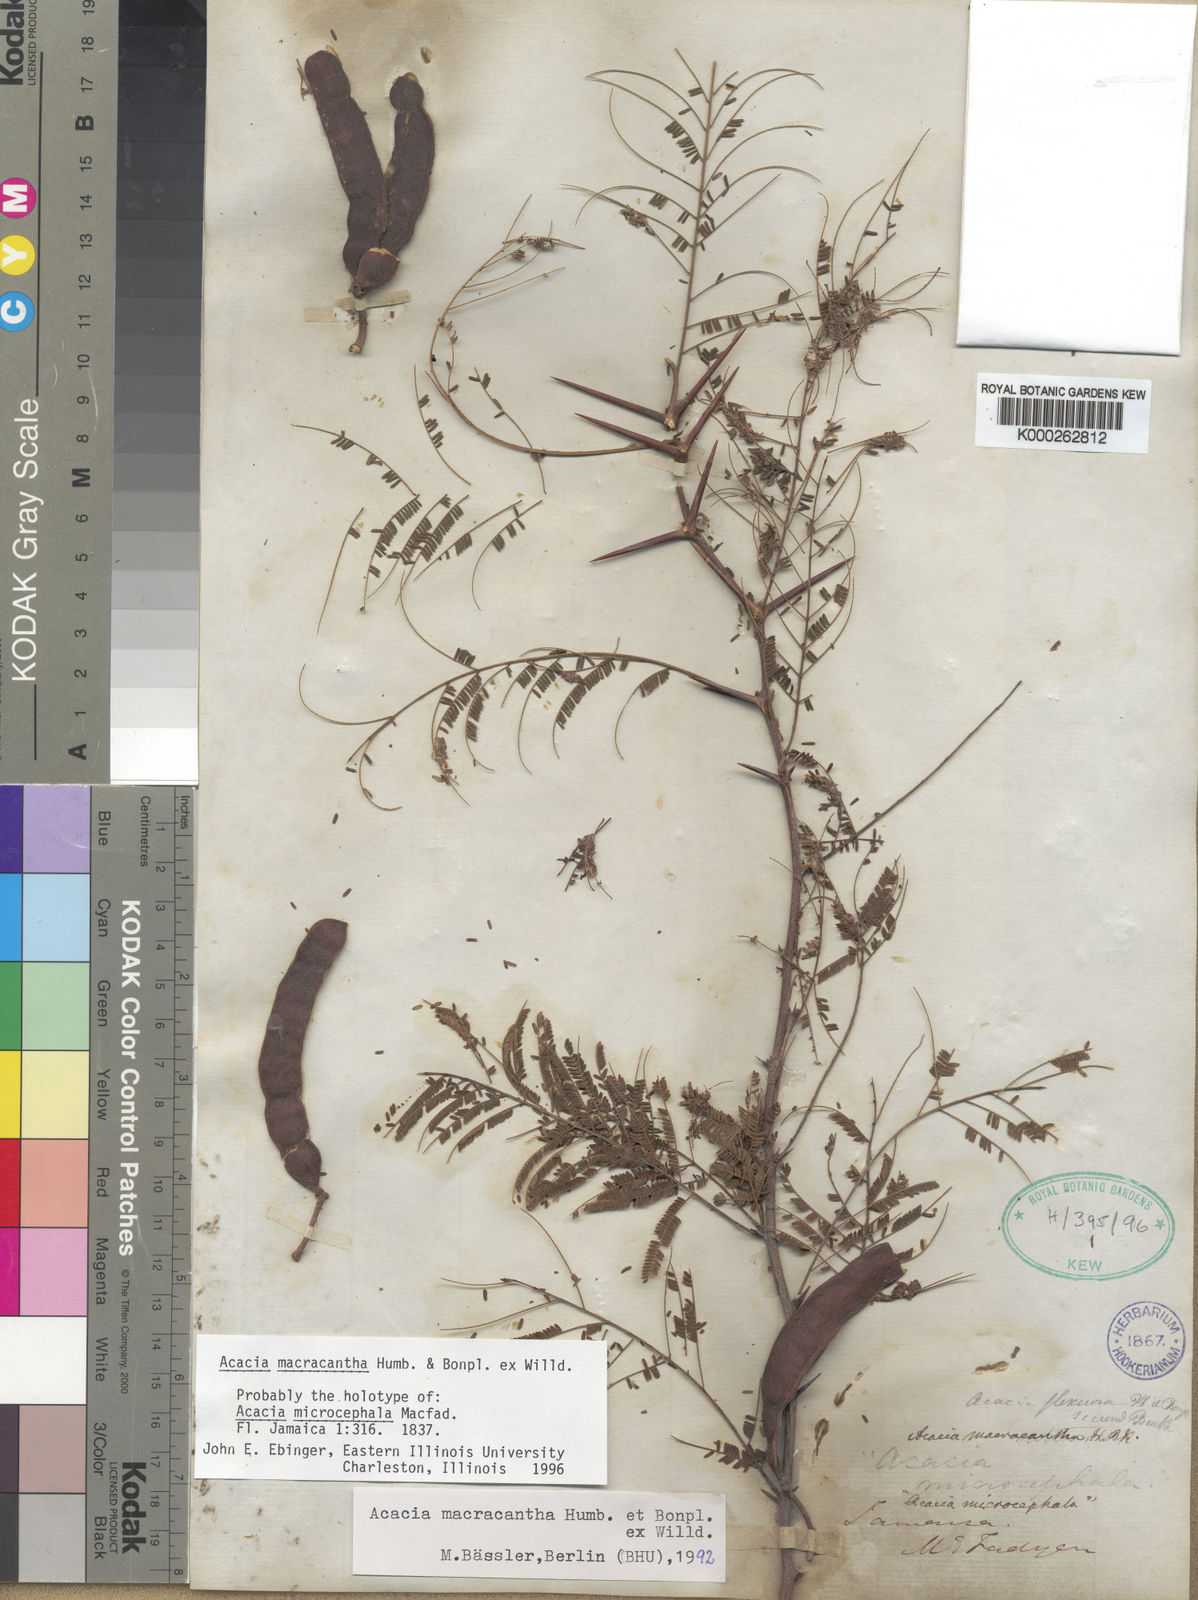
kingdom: Plantae
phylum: Tracheophyta
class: Magnoliopsida
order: Fabales
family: Fabaceae
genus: Vachellia
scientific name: Vachellia macracantha
